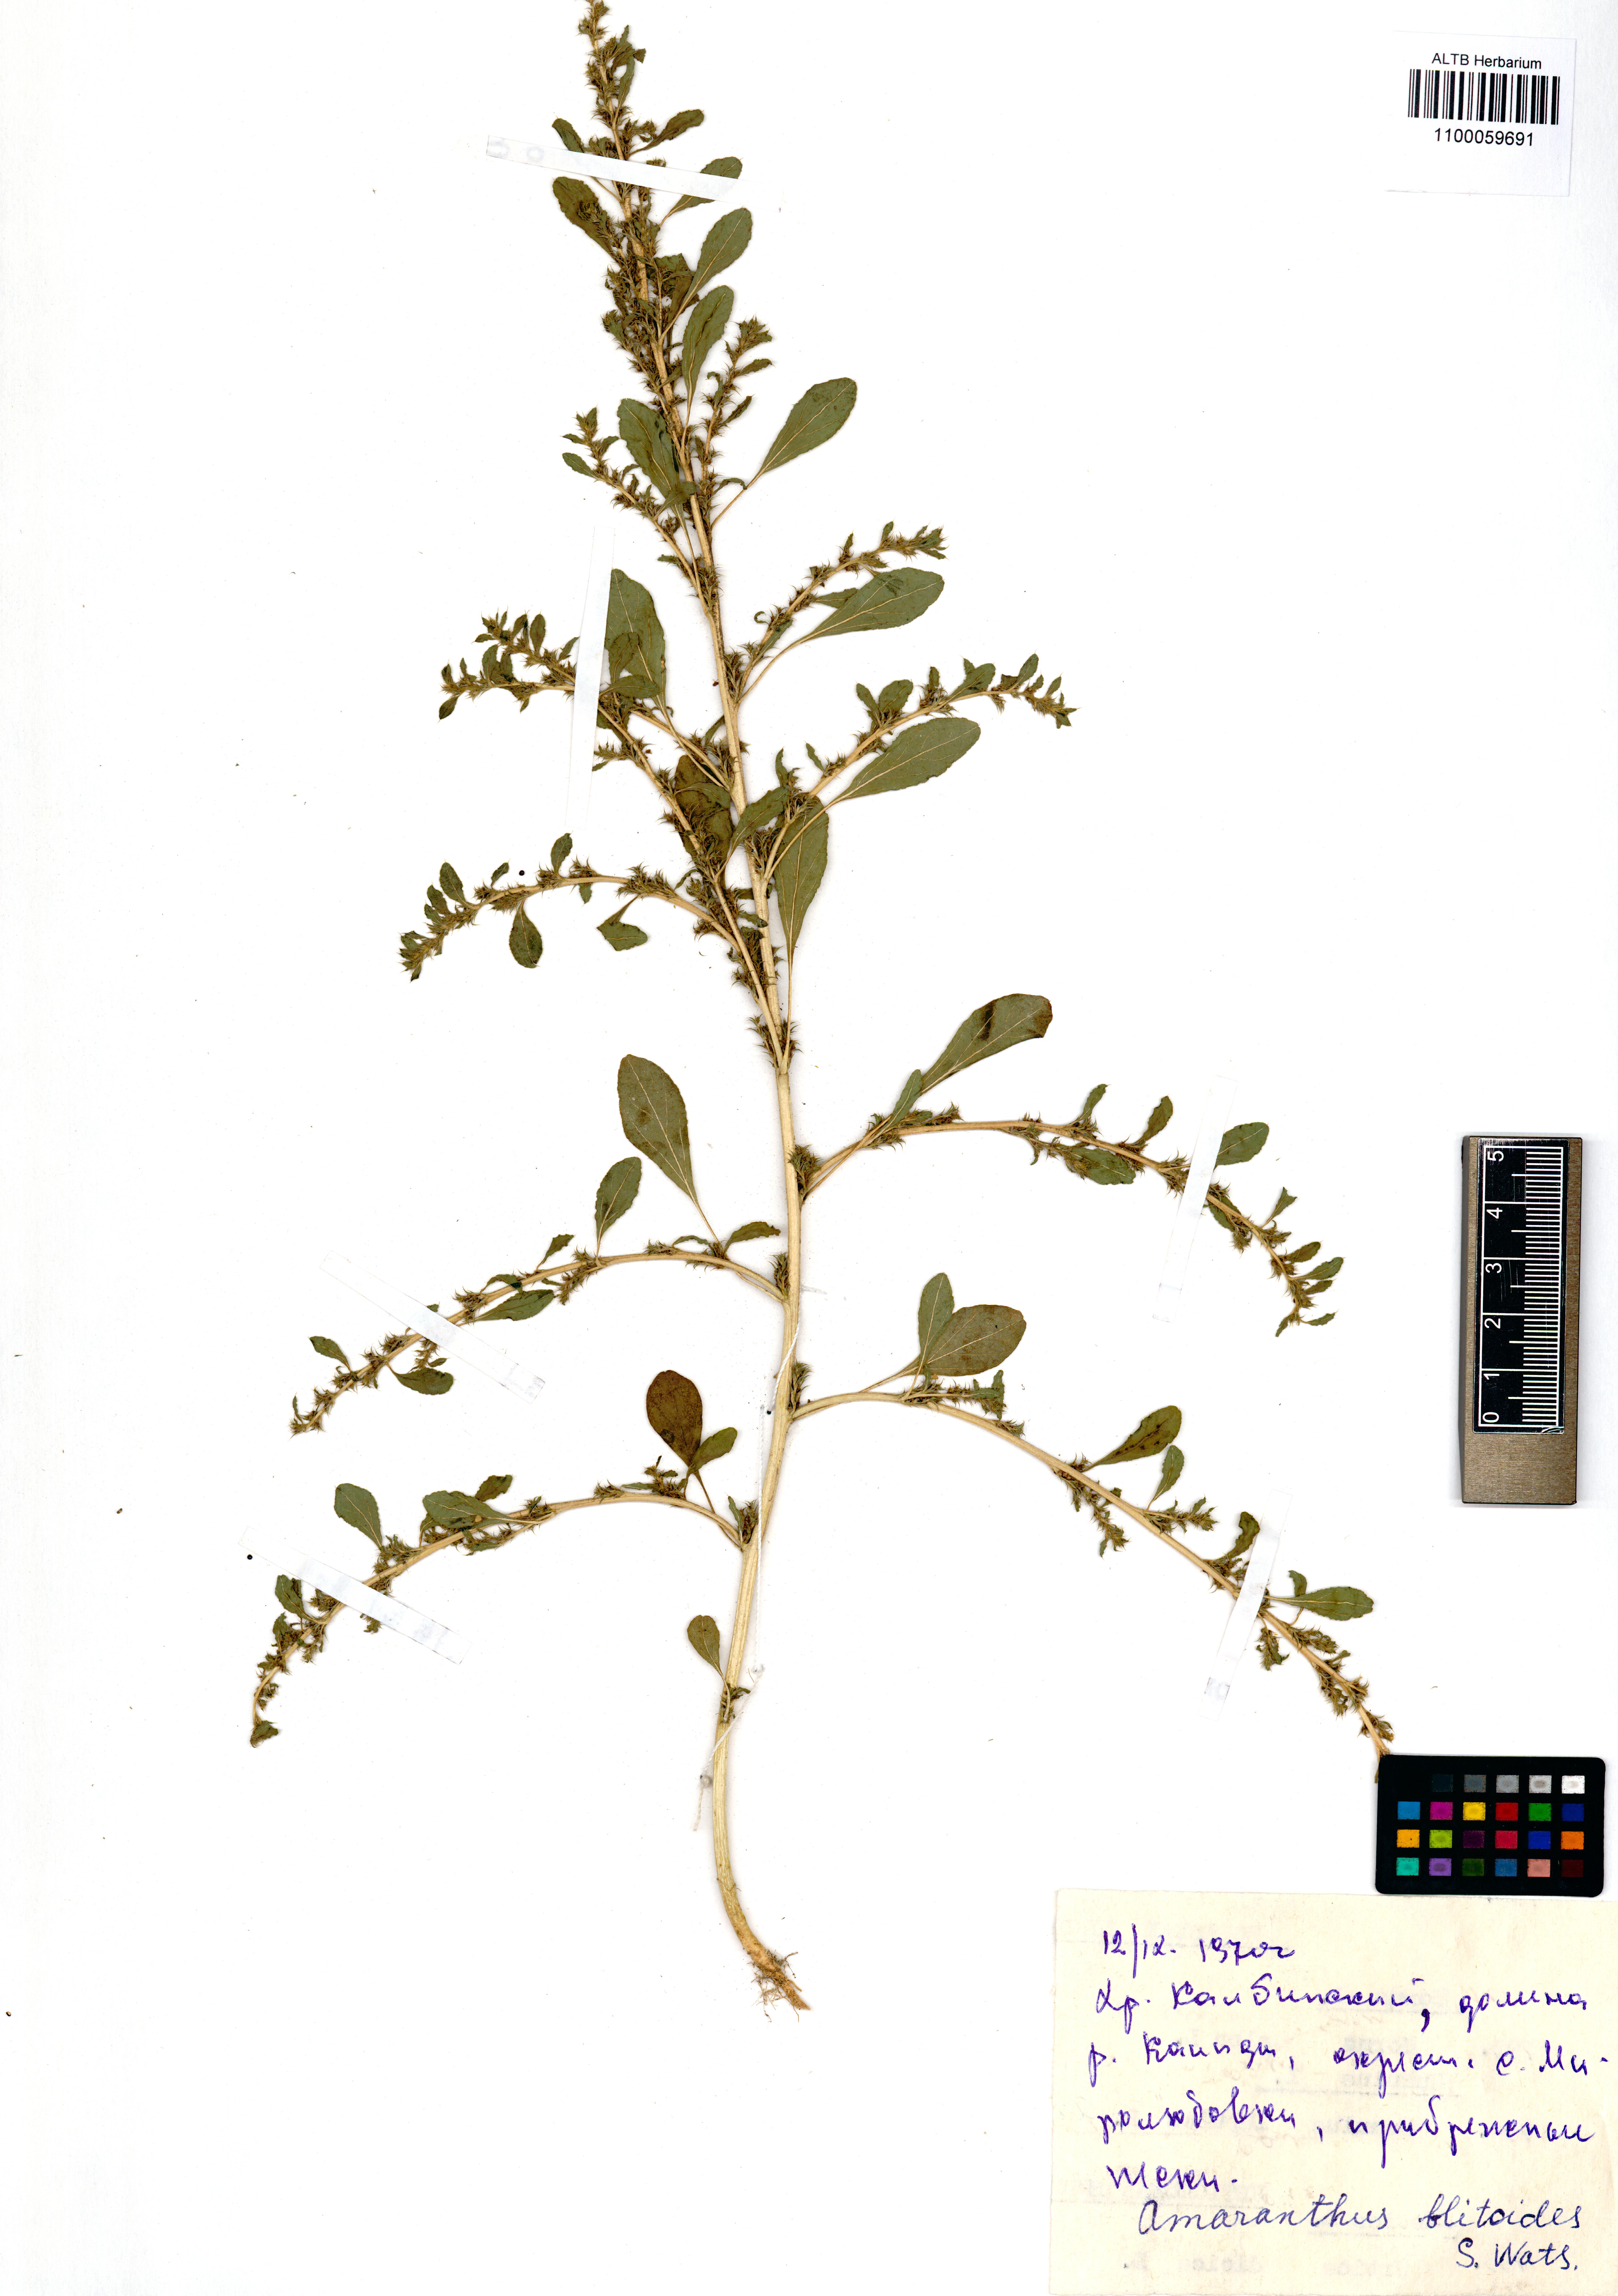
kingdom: Plantae
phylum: Tracheophyta
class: Magnoliopsida
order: Caryophyllales
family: Amaranthaceae
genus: Amaranthus
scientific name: Amaranthus blitoides
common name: Prostrate pigweed
